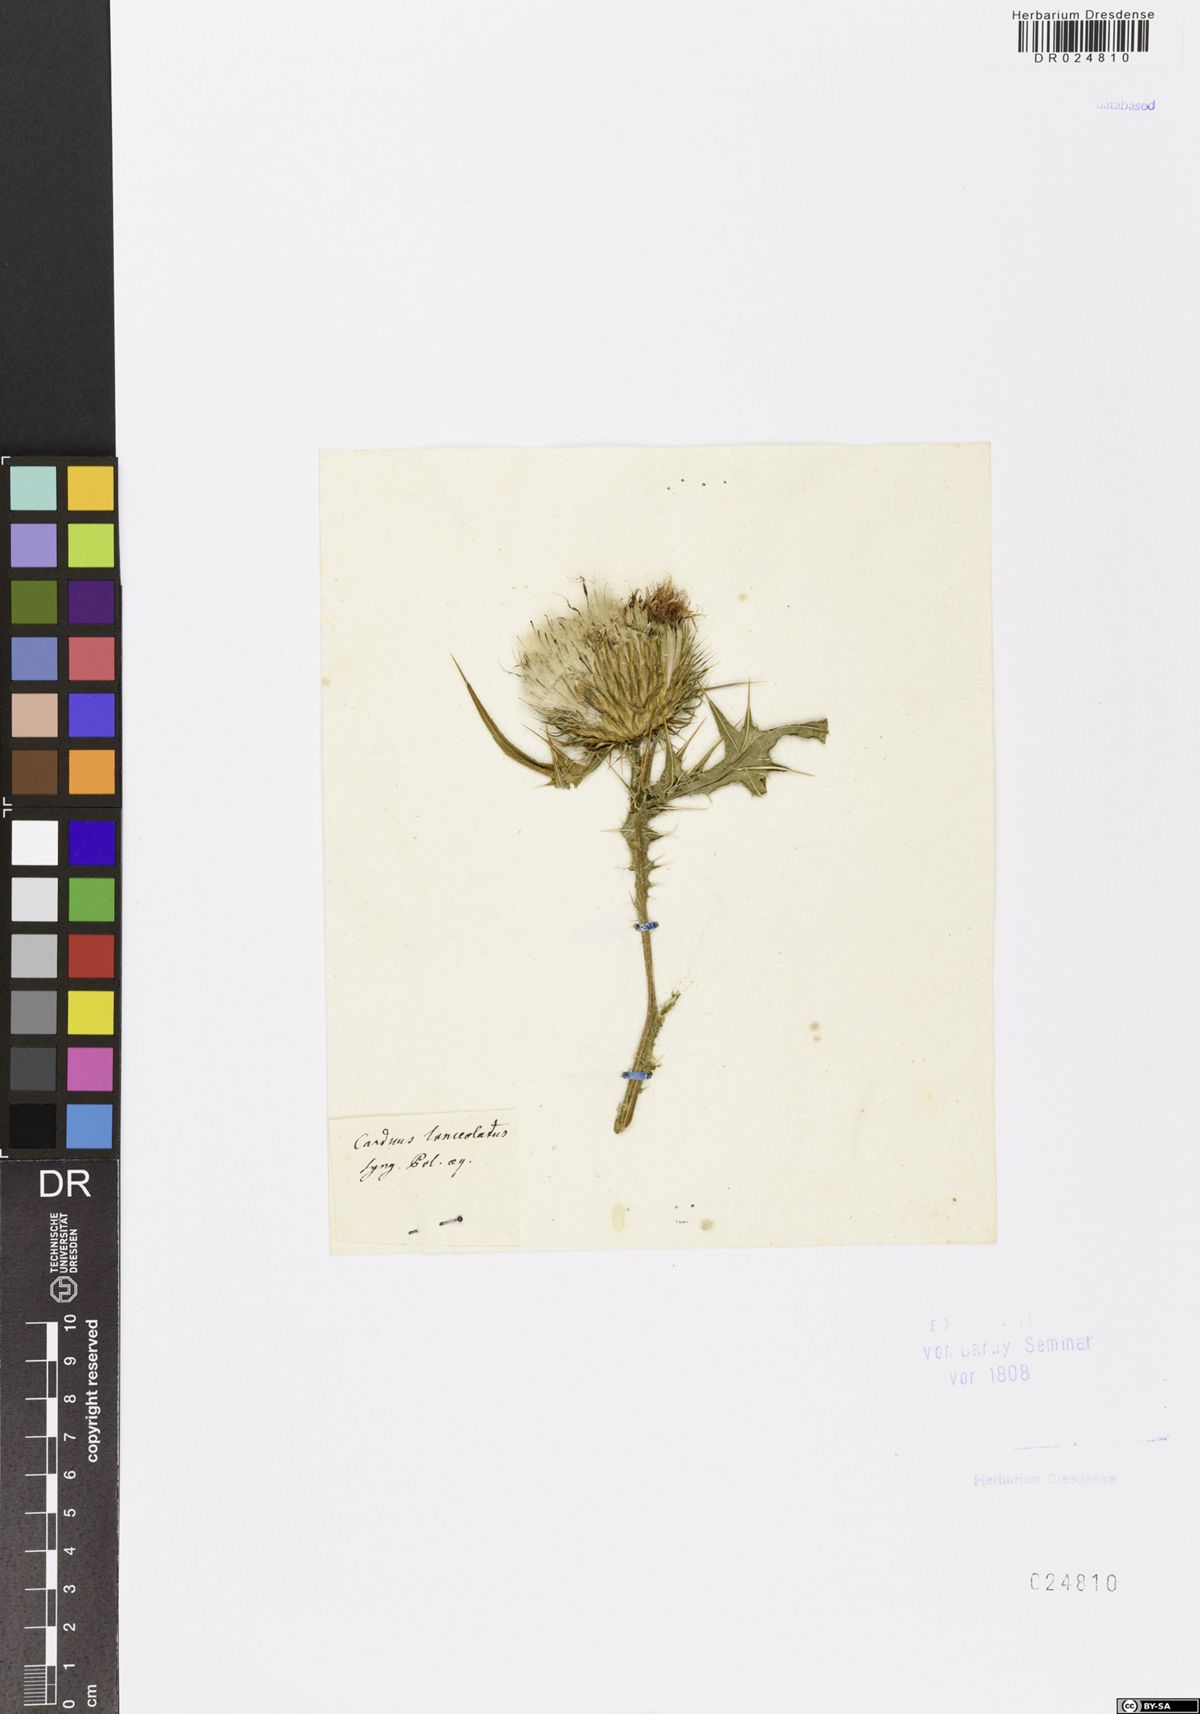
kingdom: Plantae
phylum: Tracheophyta
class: Magnoliopsida
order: Asterales
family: Asteraceae
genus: Cirsium
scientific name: Cirsium vulgare
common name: Bull thistle
